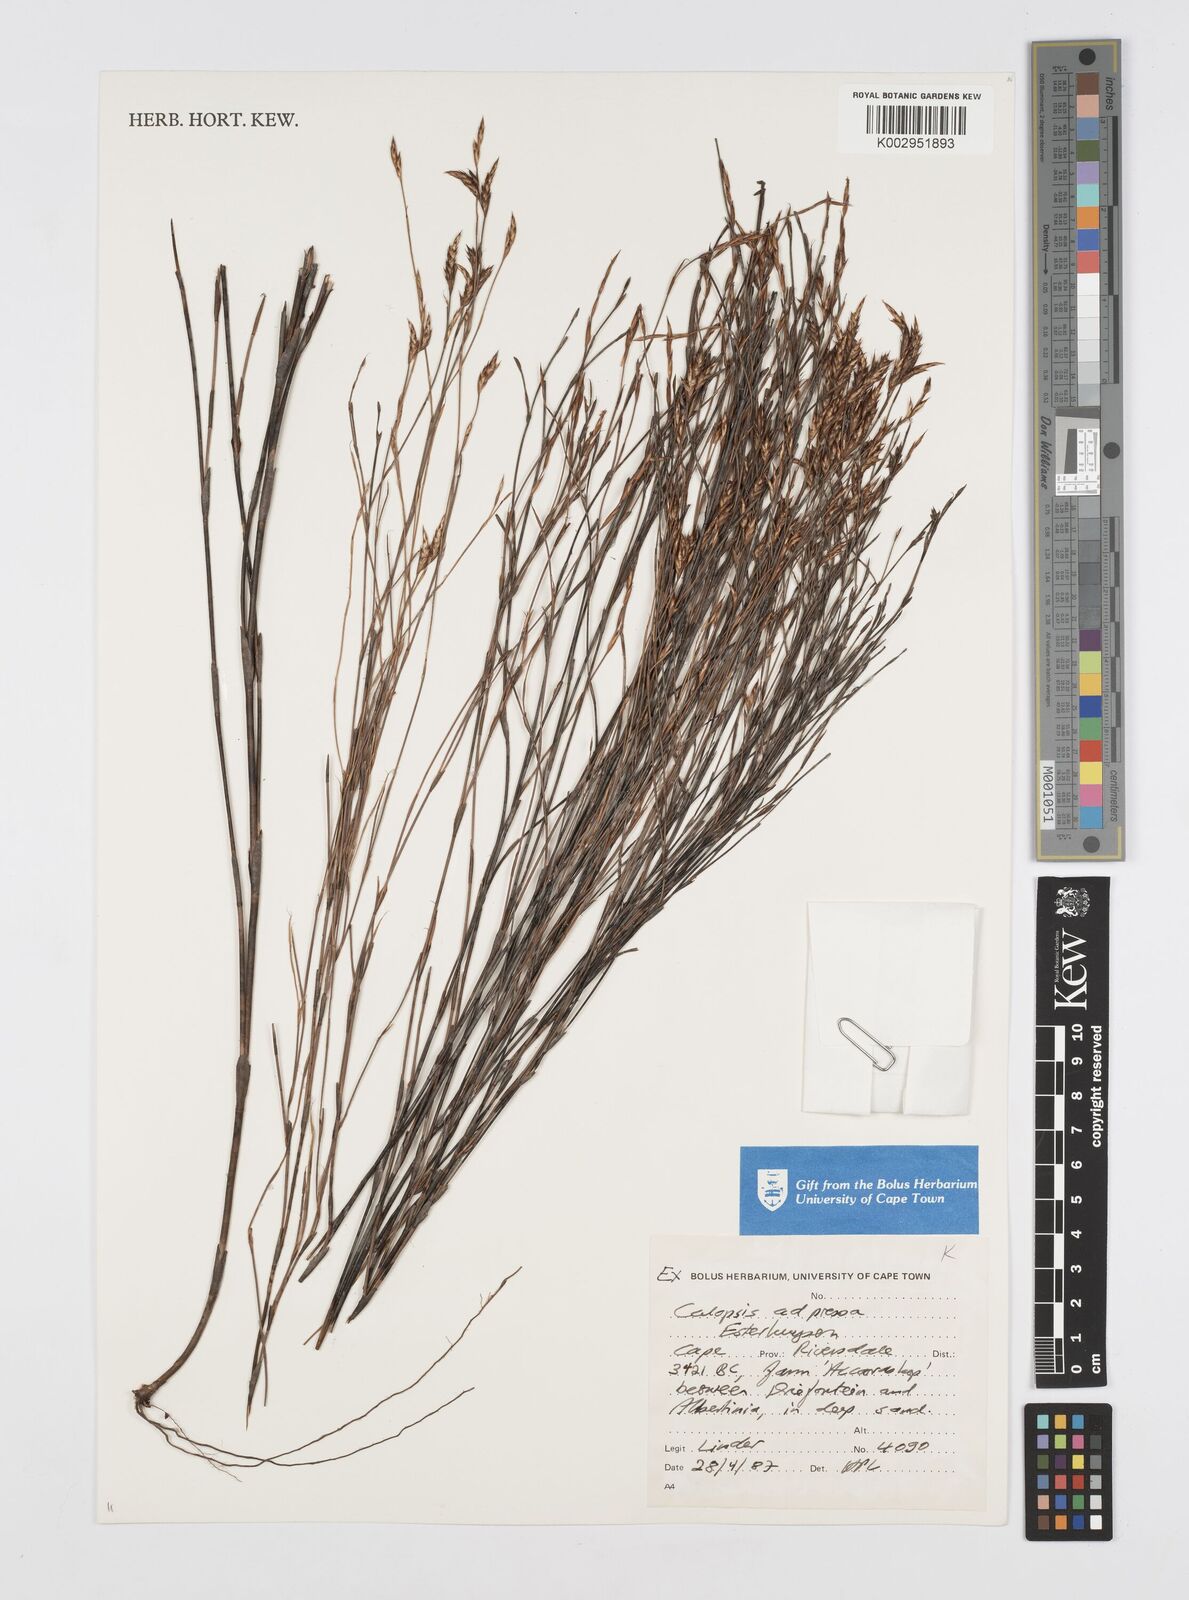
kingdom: Plantae
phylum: Tracheophyta
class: Liliopsida
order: Poales
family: Restionaceae
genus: Restio
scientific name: Restio adpressus
